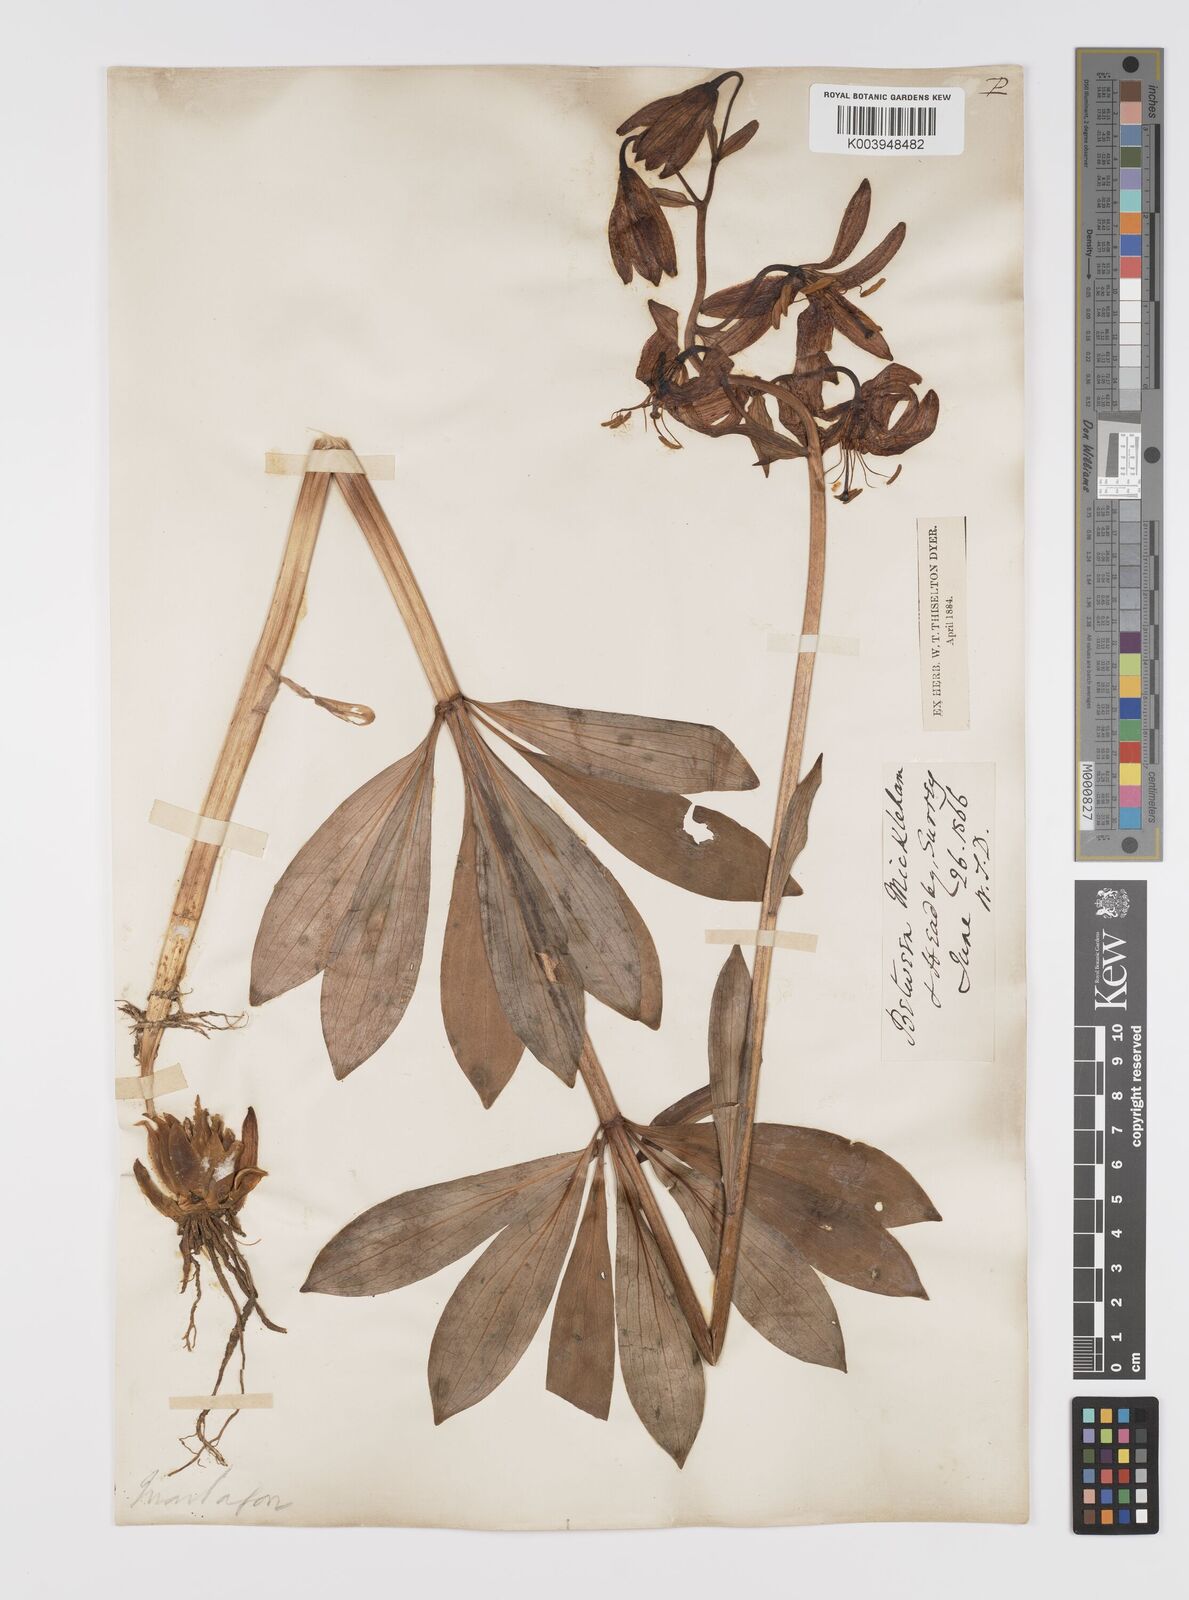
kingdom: Plantae
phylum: Tracheophyta
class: Liliopsida
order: Liliales
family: Liliaceae
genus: Lilium
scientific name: Lilium martagon
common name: Martagon lily
